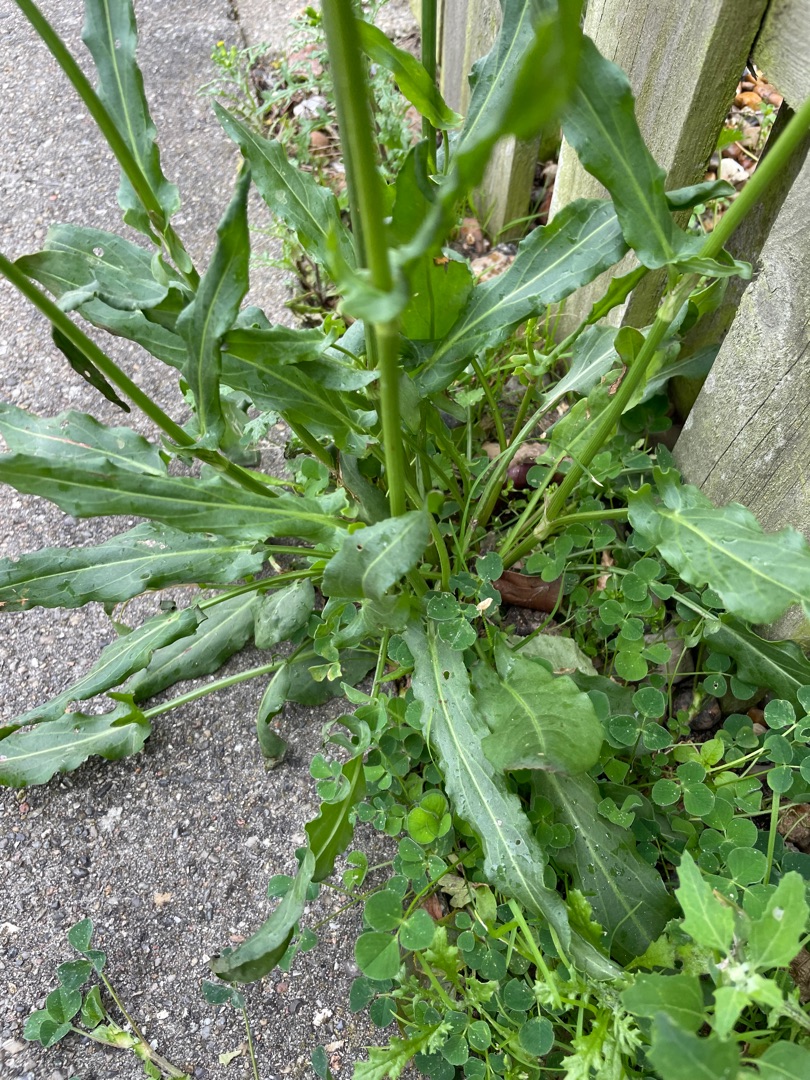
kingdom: Plantae
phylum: Tracheophyta
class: Magnoliopsida
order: Caryophyllales
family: Polygonaceae
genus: Rumex
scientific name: Rumex thyrsiflorus
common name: Dusk-syre
